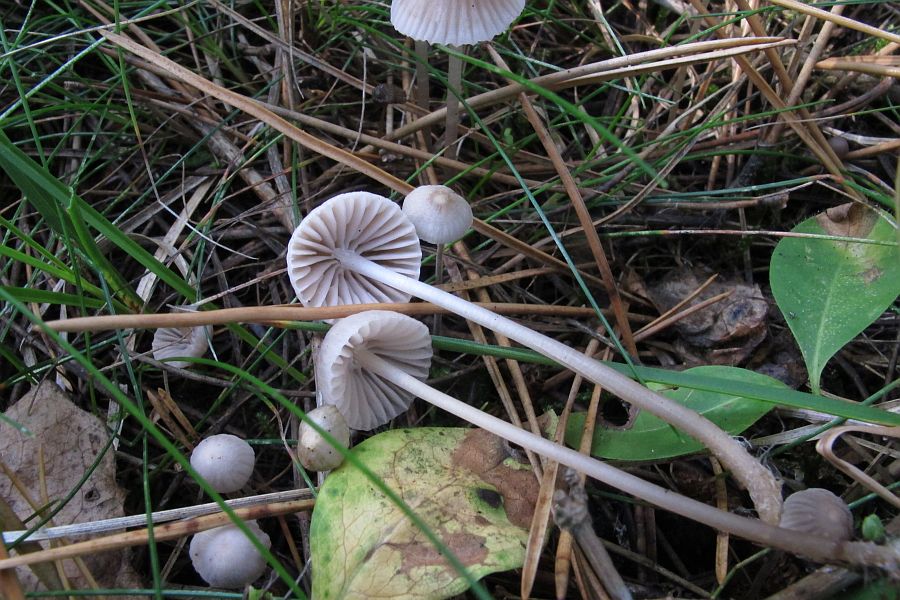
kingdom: Fungi
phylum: Basidiomycota
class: Agaricomycetes
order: Agaricales
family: Mycenaceae
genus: Mycena
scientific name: Mycena leptocephala
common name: klor-huesvamp
